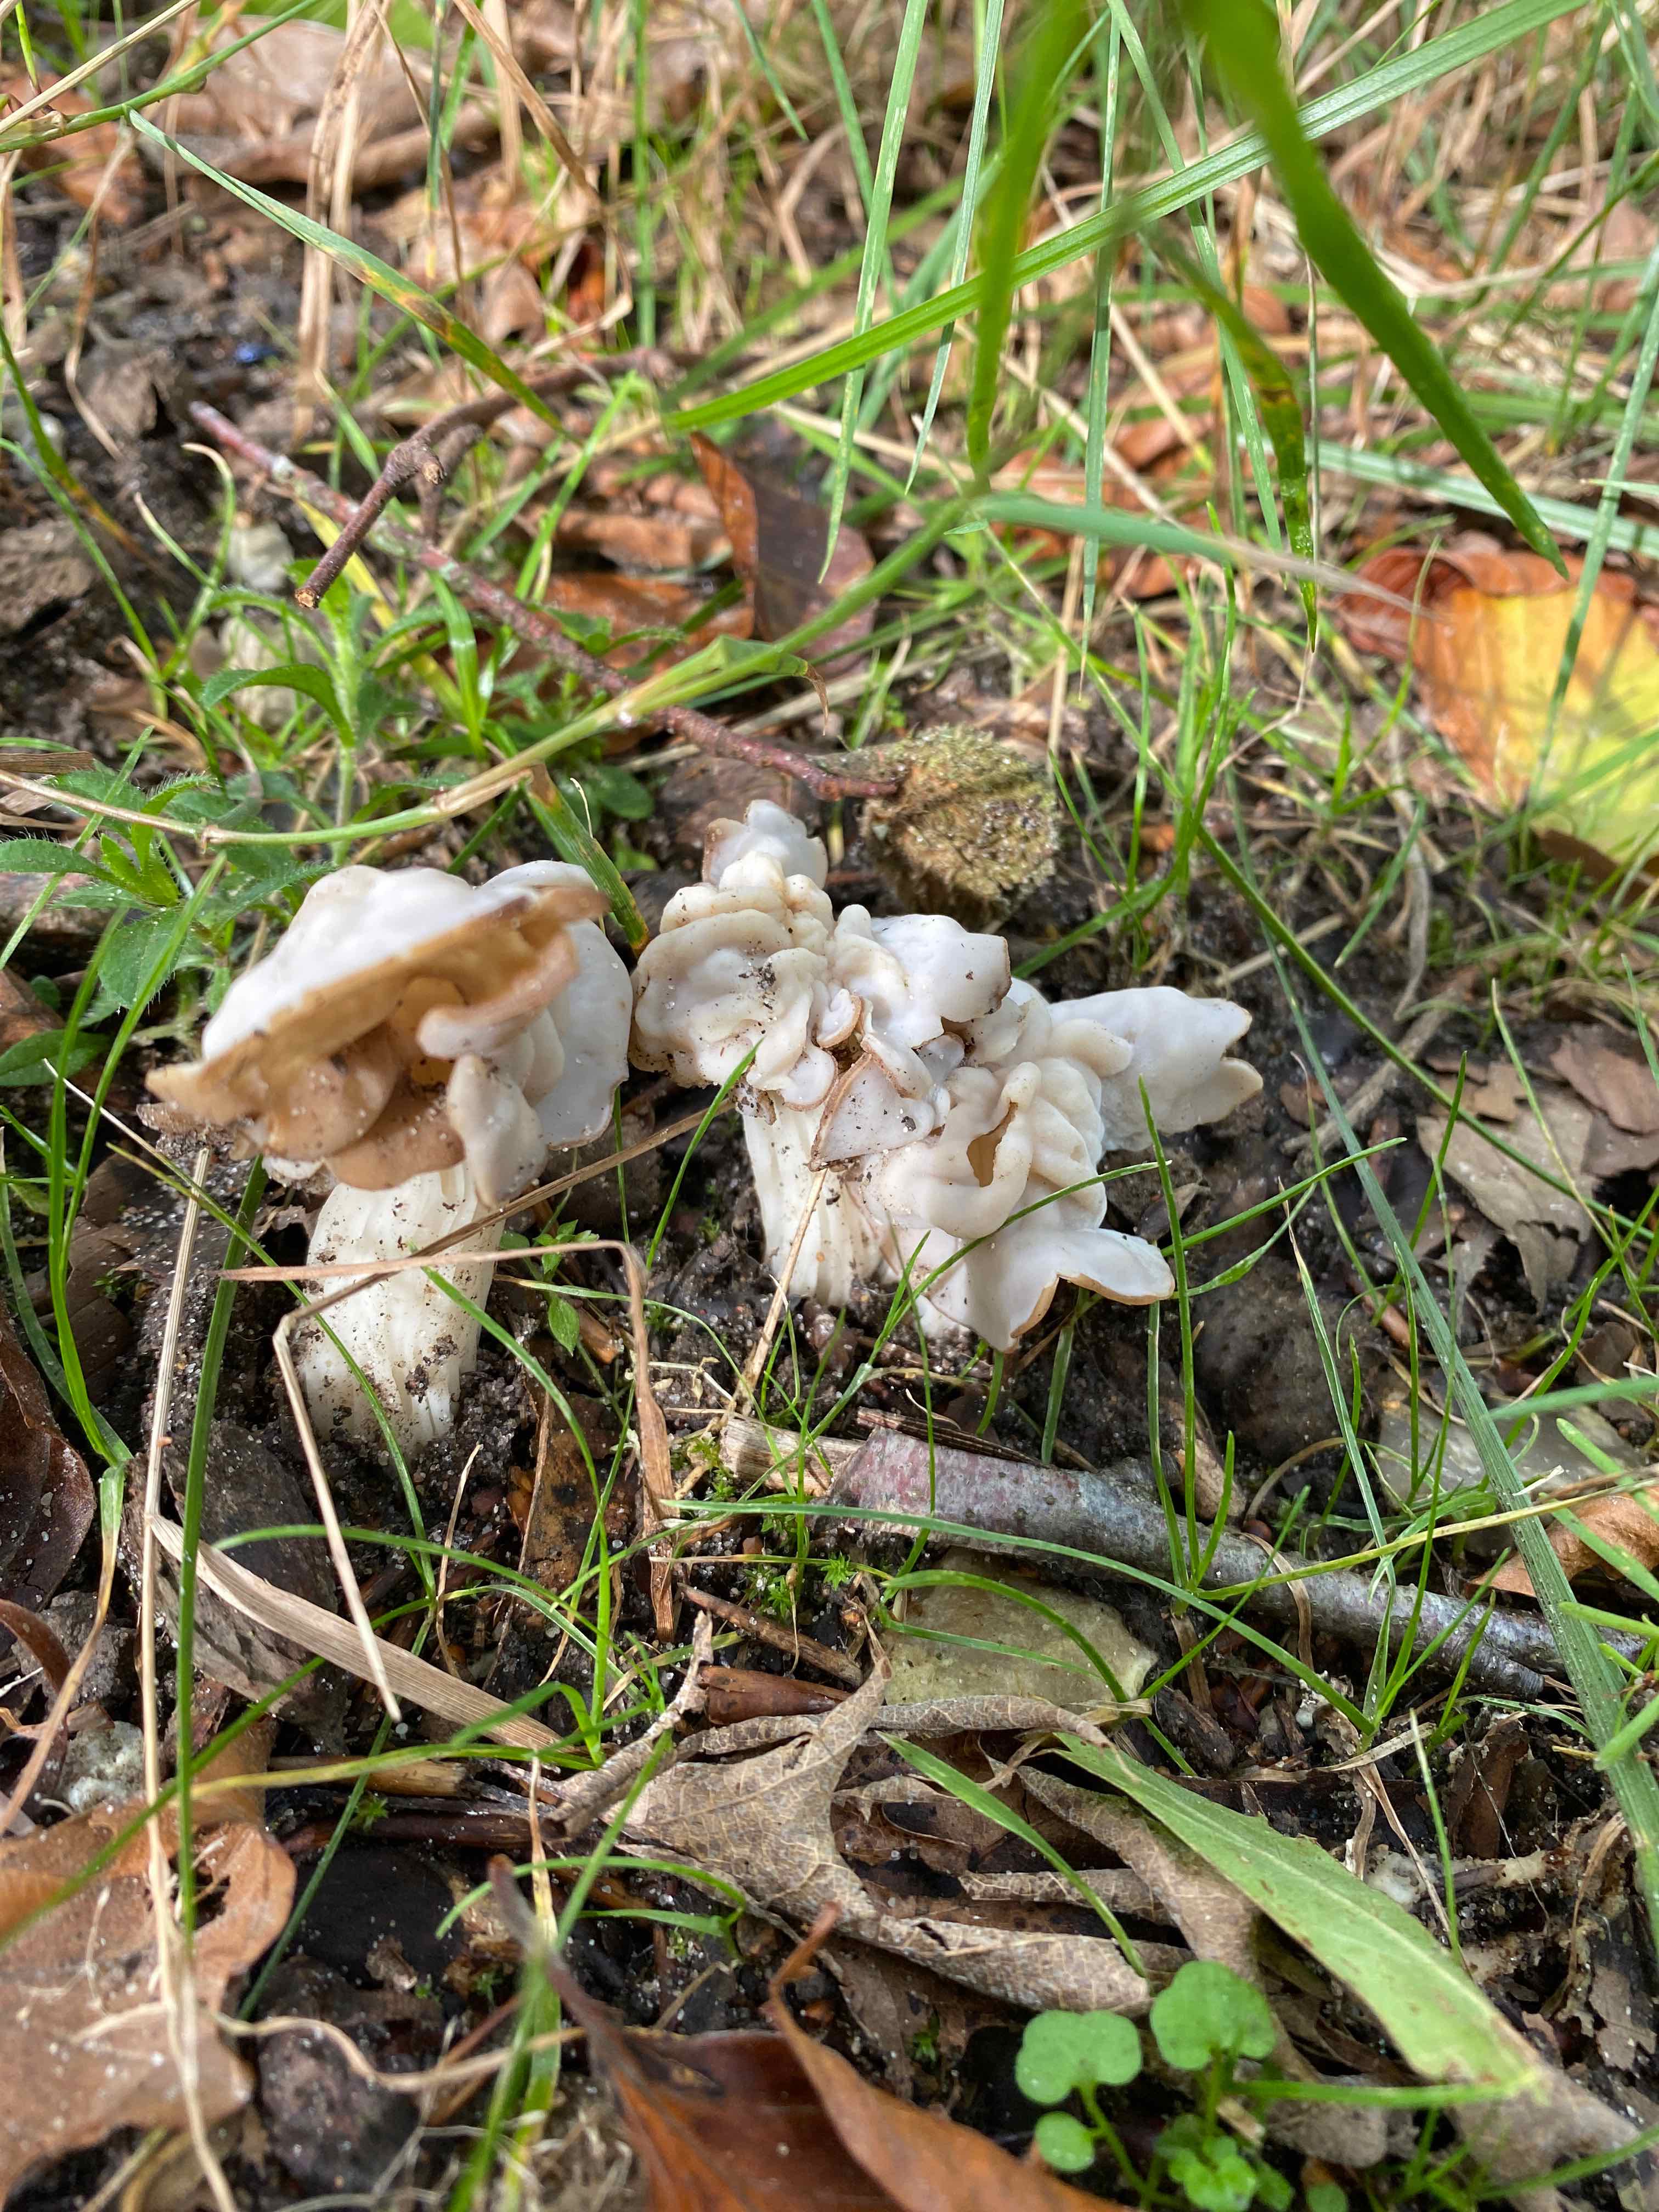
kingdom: Fungi
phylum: Ascomycota
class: Pezizomycetes
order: Pezizales
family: Helvellaceae
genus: Helvella
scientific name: Helvella crispa
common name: kruset foldhat
